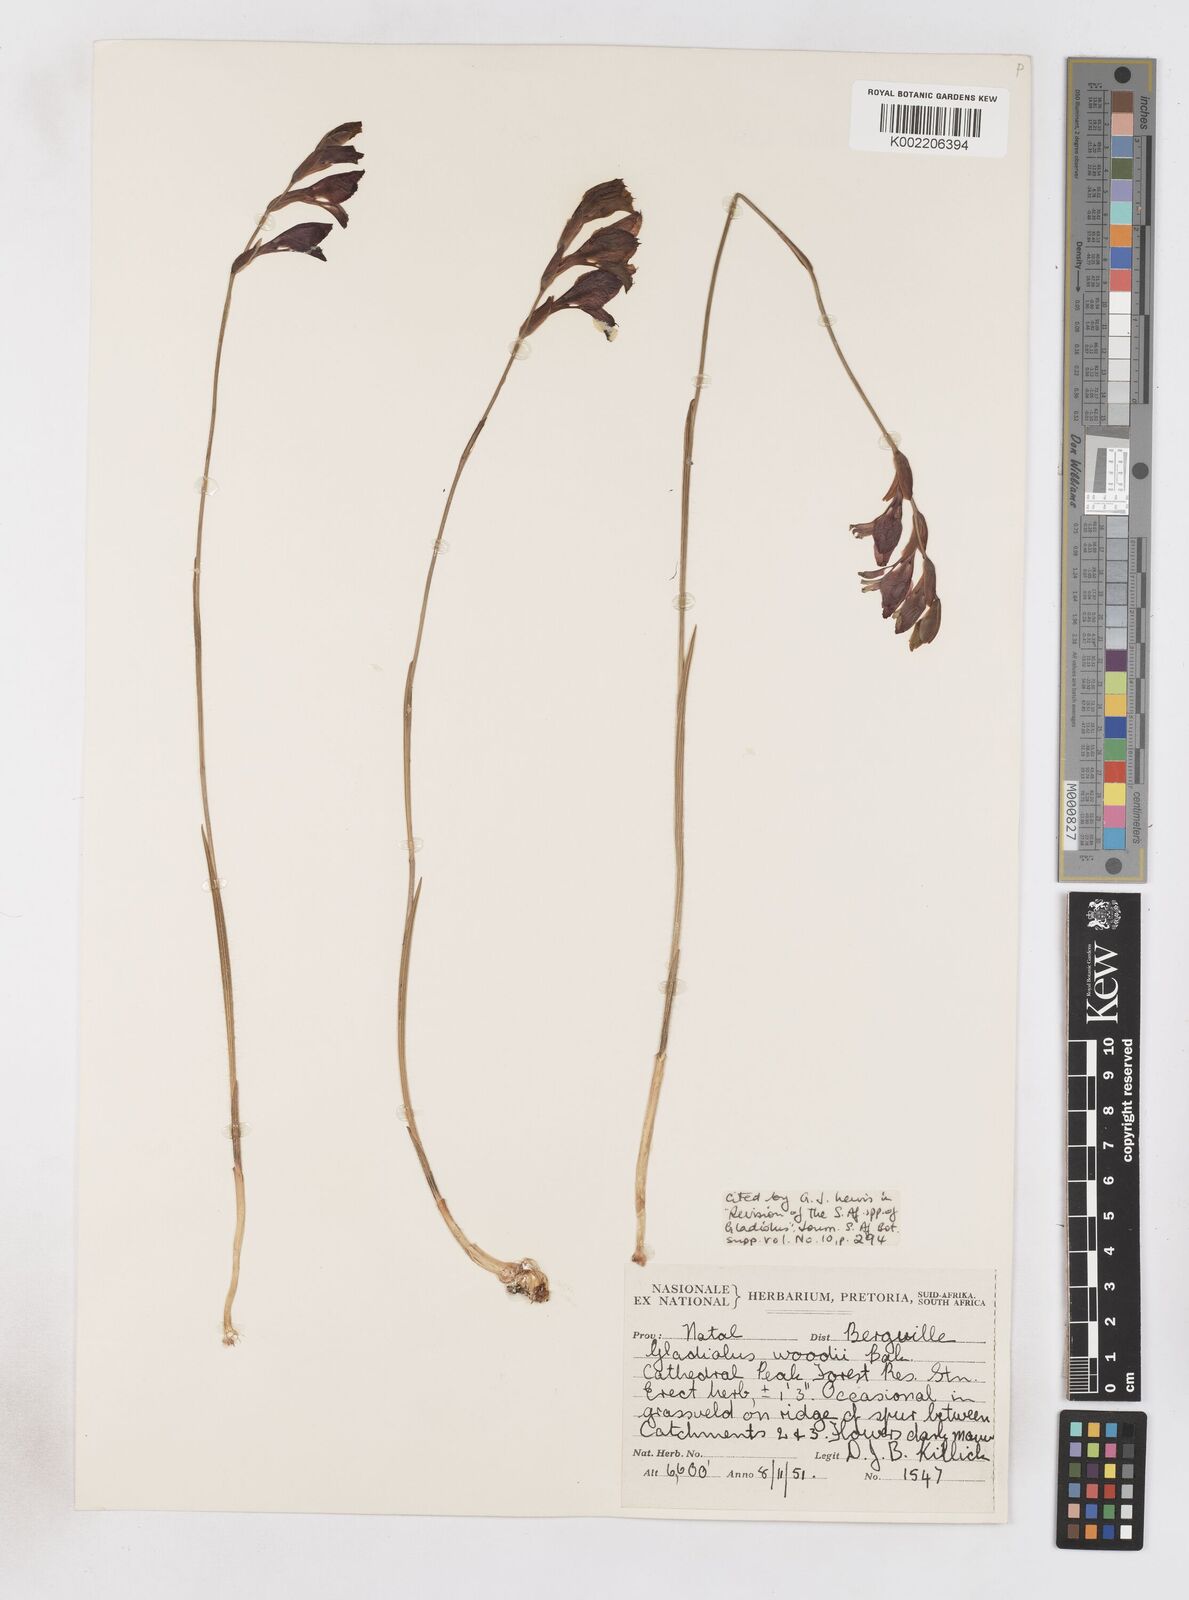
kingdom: Plantae
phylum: Tracheophyta
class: Liliopsida
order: Asparagales
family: Iridaceae
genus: Gladiolus
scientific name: Gladiolus woodii
